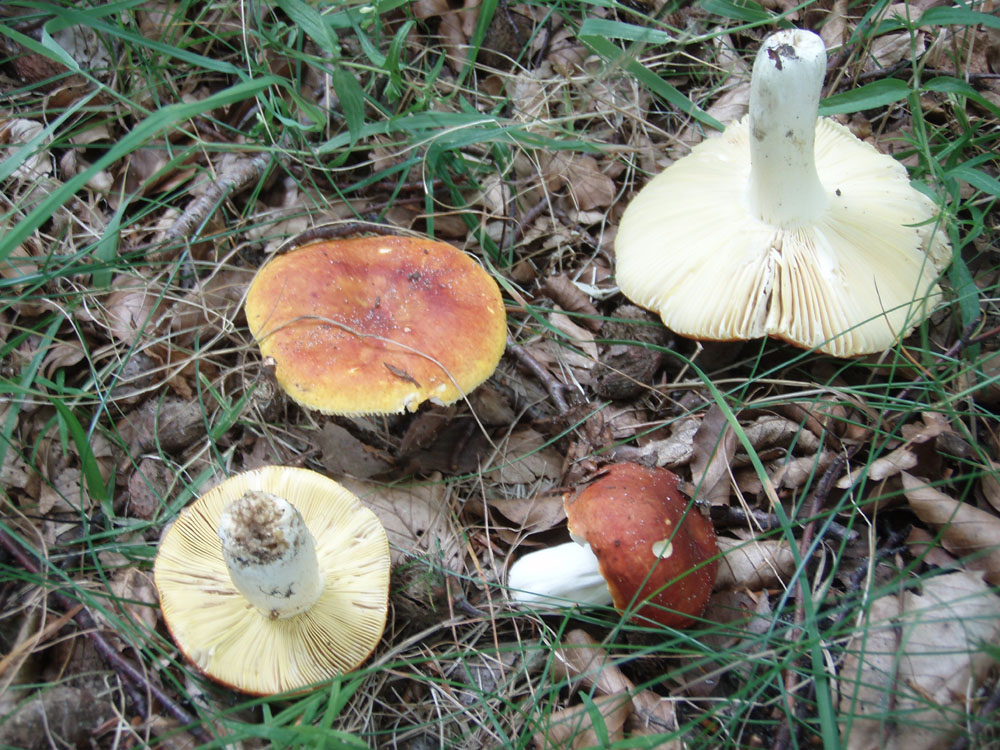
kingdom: Fungi
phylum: Basidiomycota
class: Agaricomycetes
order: Russulales
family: Russulaceae
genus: Russula
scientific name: Russula aurea
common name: gylden skørhat
